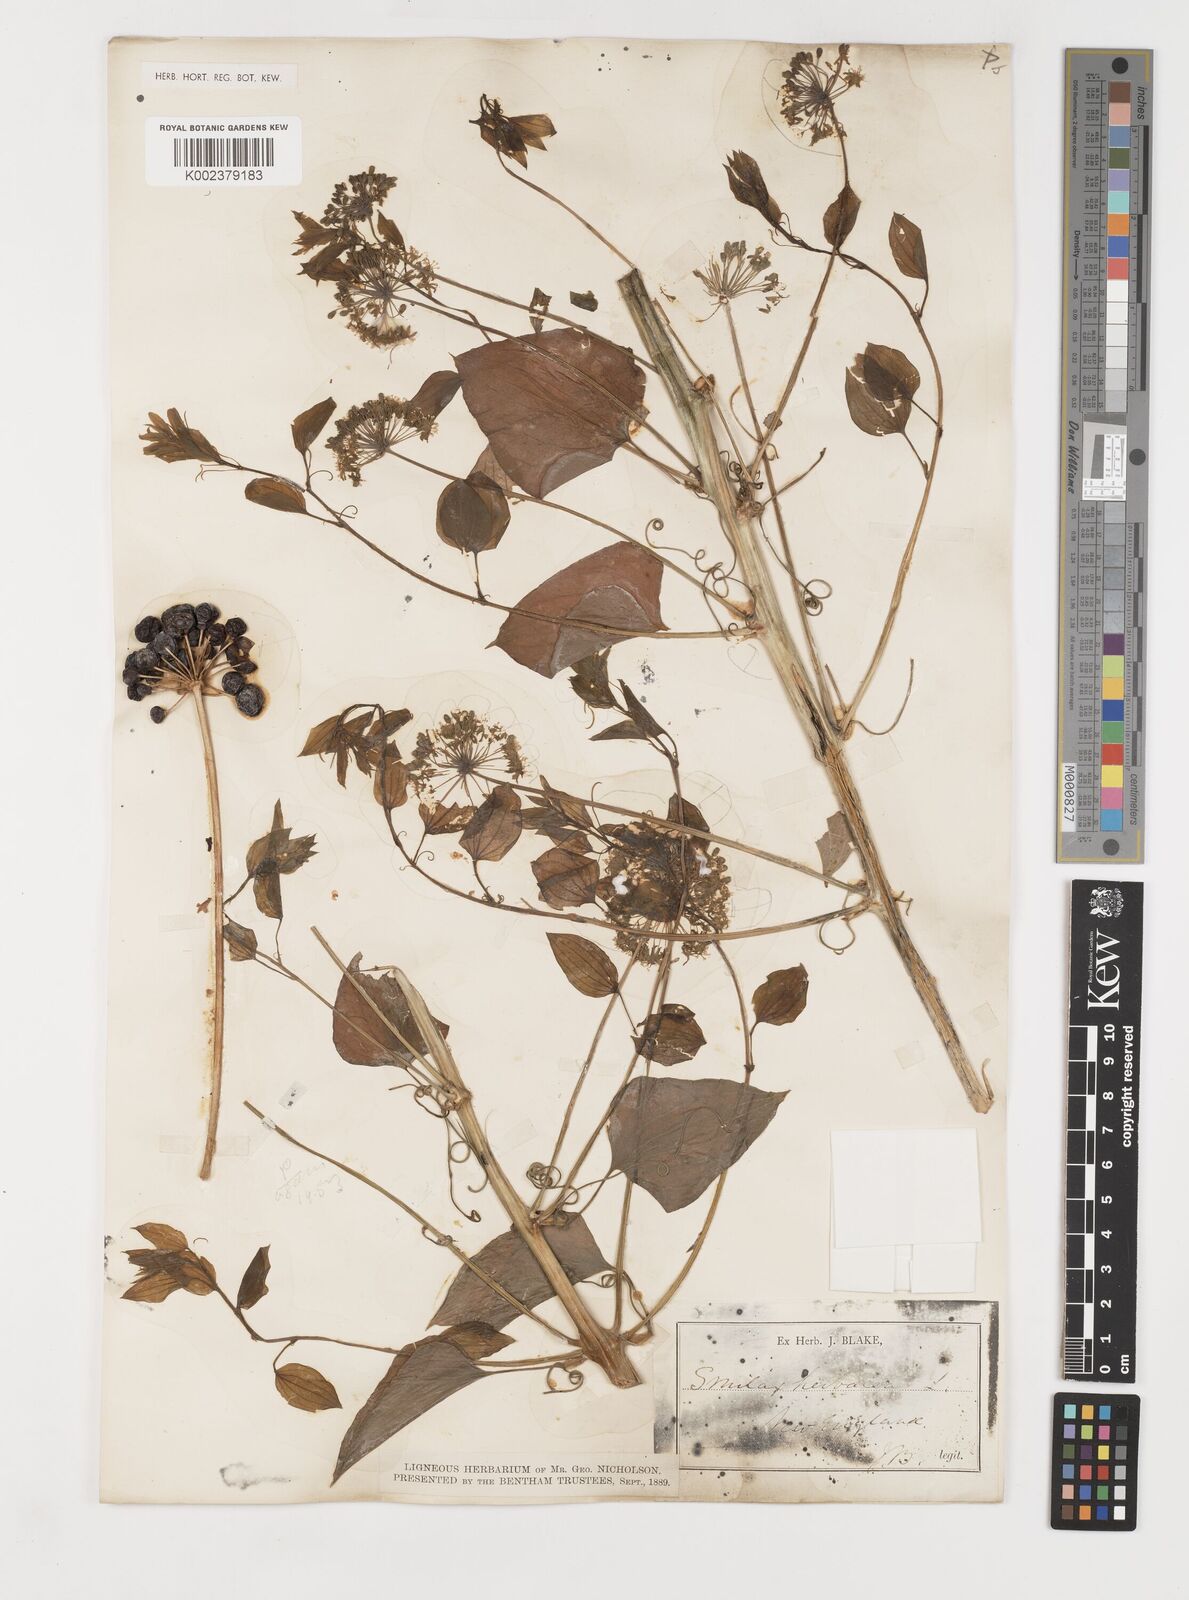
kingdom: Plantae
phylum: Tracheophyta
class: Liliopsida
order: Liliales
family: Smilacaceae
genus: Smilax
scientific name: Smilax herbacea
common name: Jacob's-ladder
